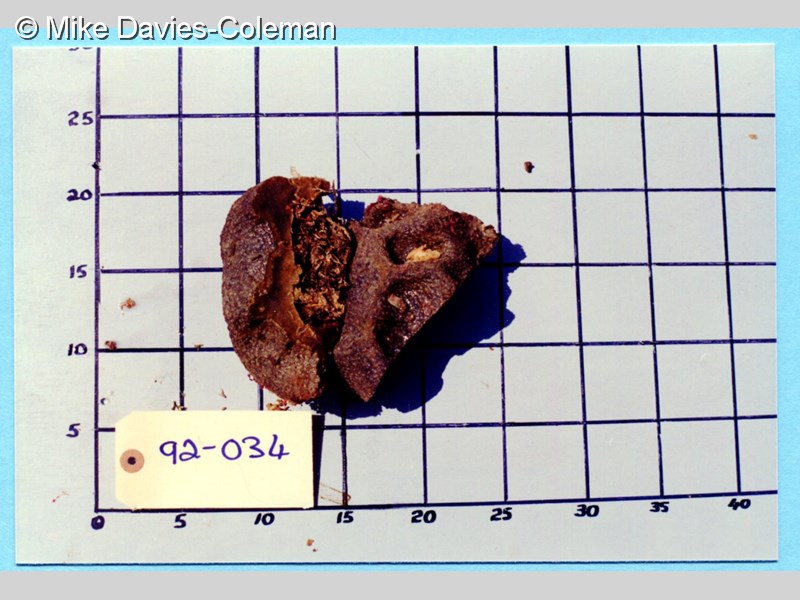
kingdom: Animalia
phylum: Chordata
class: Ascidiacea
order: Aplousobranchia
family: Polyclinidae
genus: Polyclinum
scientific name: Polyclinum isipingense
